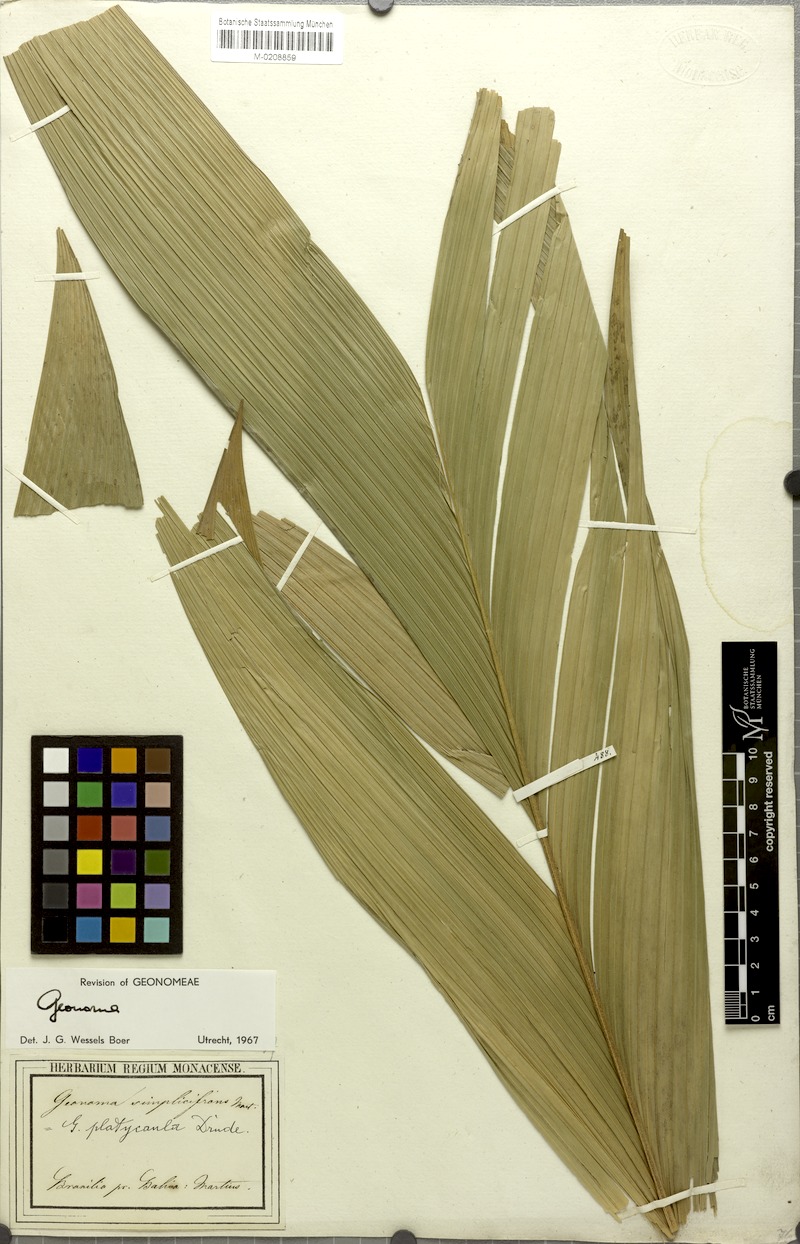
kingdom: Plantae
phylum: Tracheophyta
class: Liliopsida
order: Arecales
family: Arecaceae
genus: Geonoma
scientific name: Geonoma pohliana
